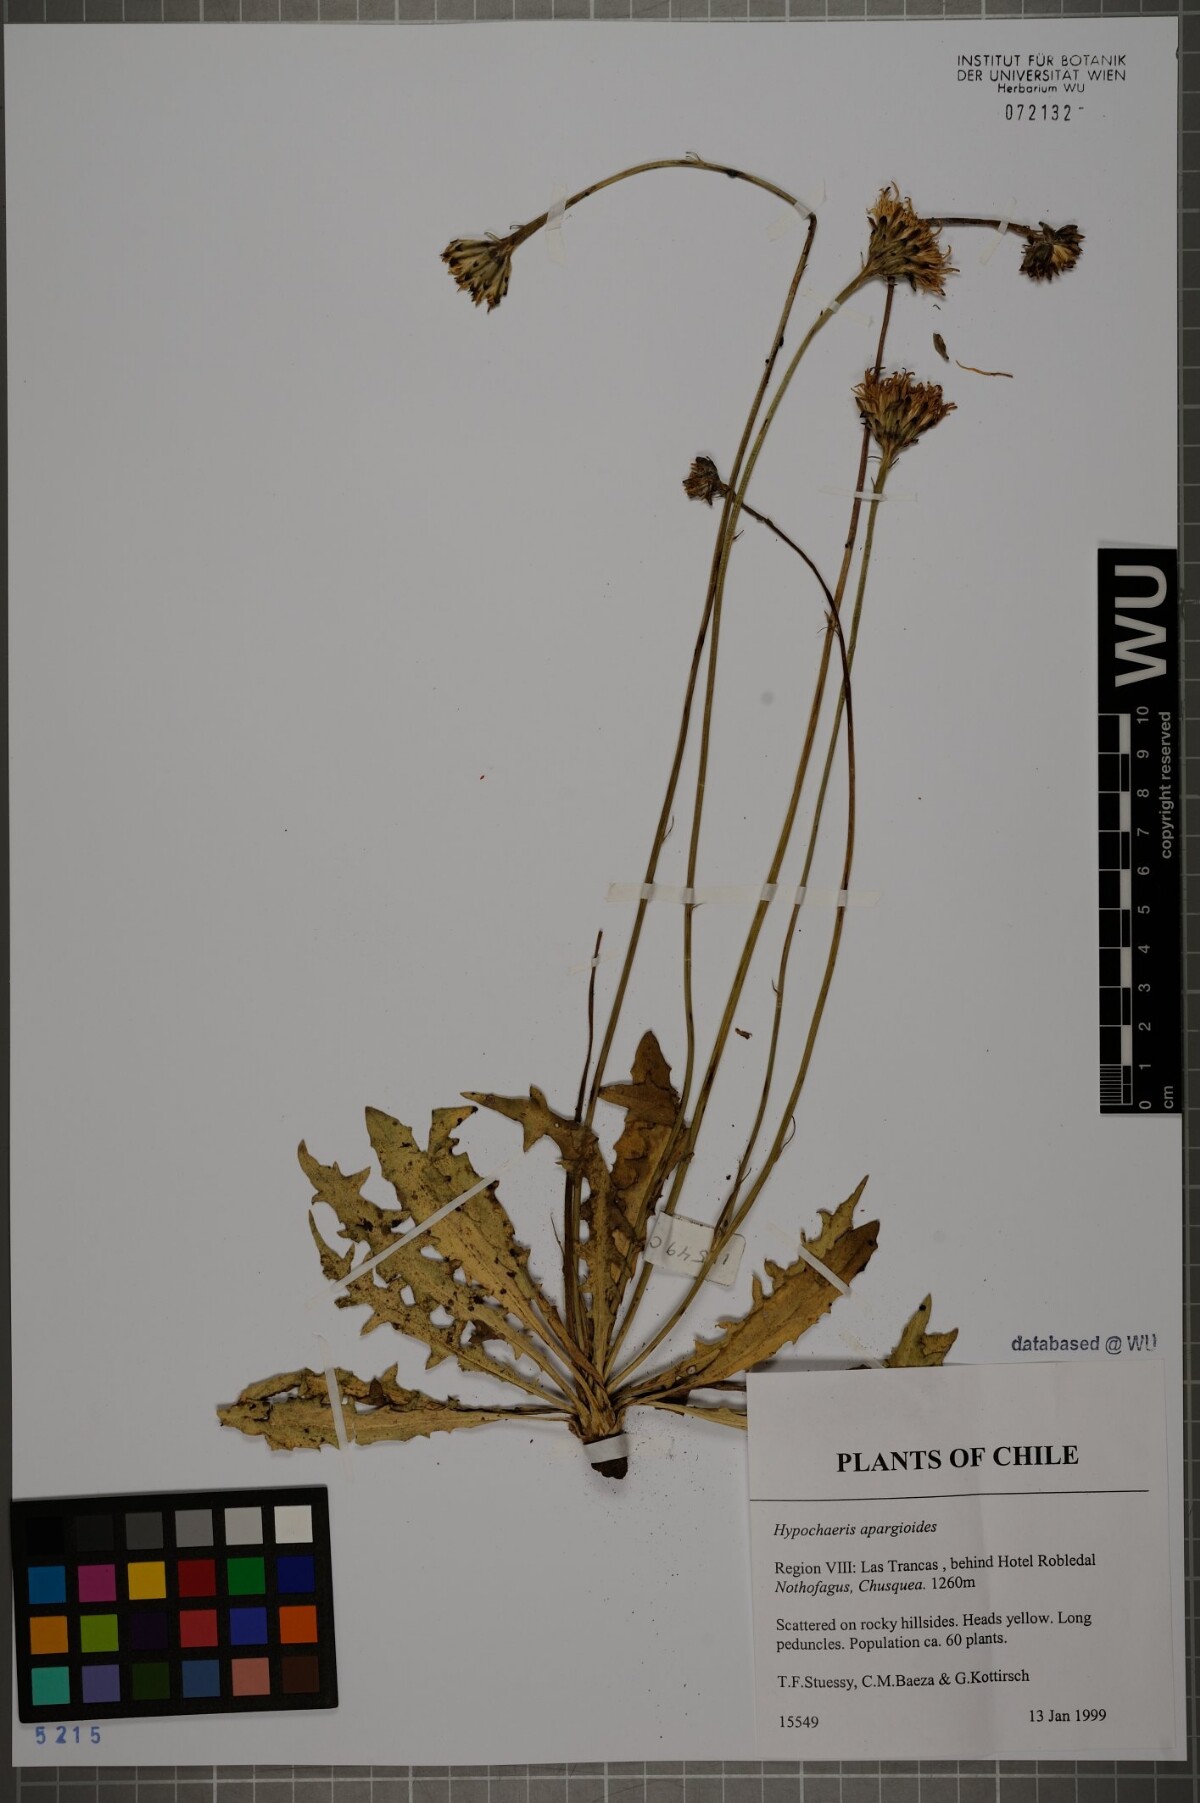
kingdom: Plantae
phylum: Tracheophyta
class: Magnoliopsida
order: Asterales
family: Asteraceae
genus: Hypochaeris
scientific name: Hypochaeris apargioides
